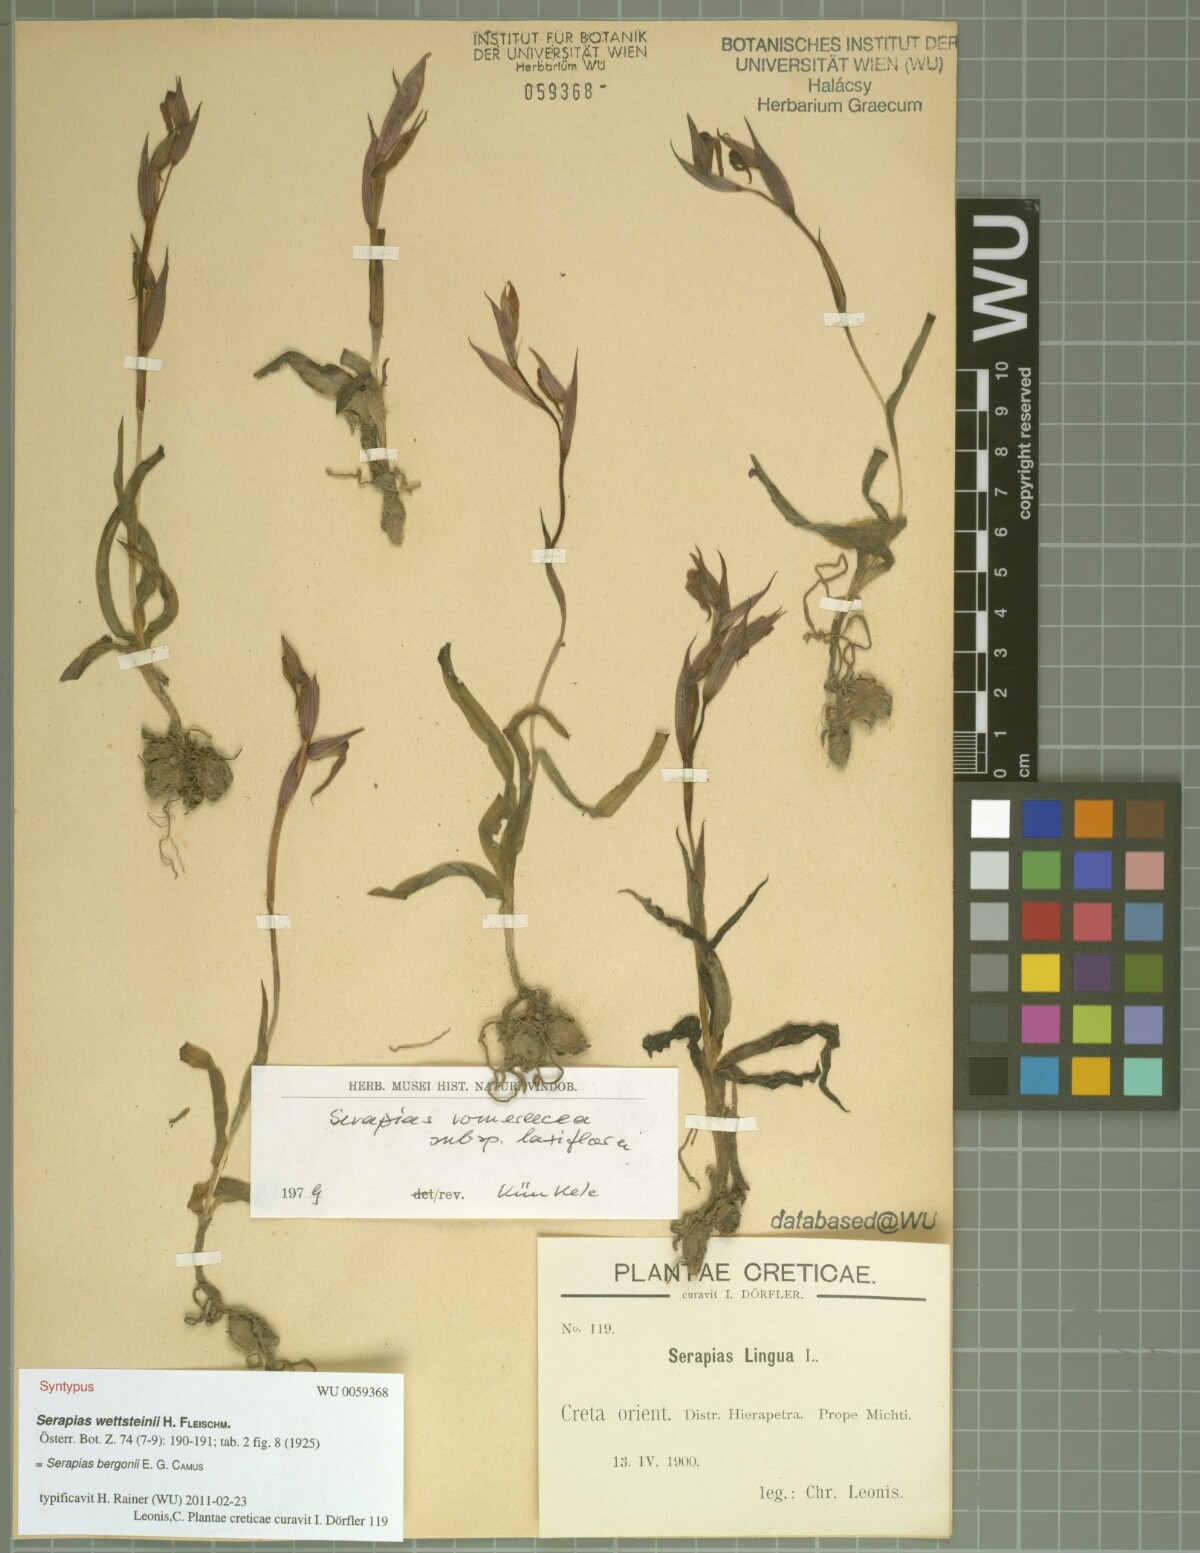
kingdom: Plantae
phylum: Tracheophyta
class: Liliopsida
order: Asparagales
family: Orchidaceae
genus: Serapias
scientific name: Serapias wettsteinii
